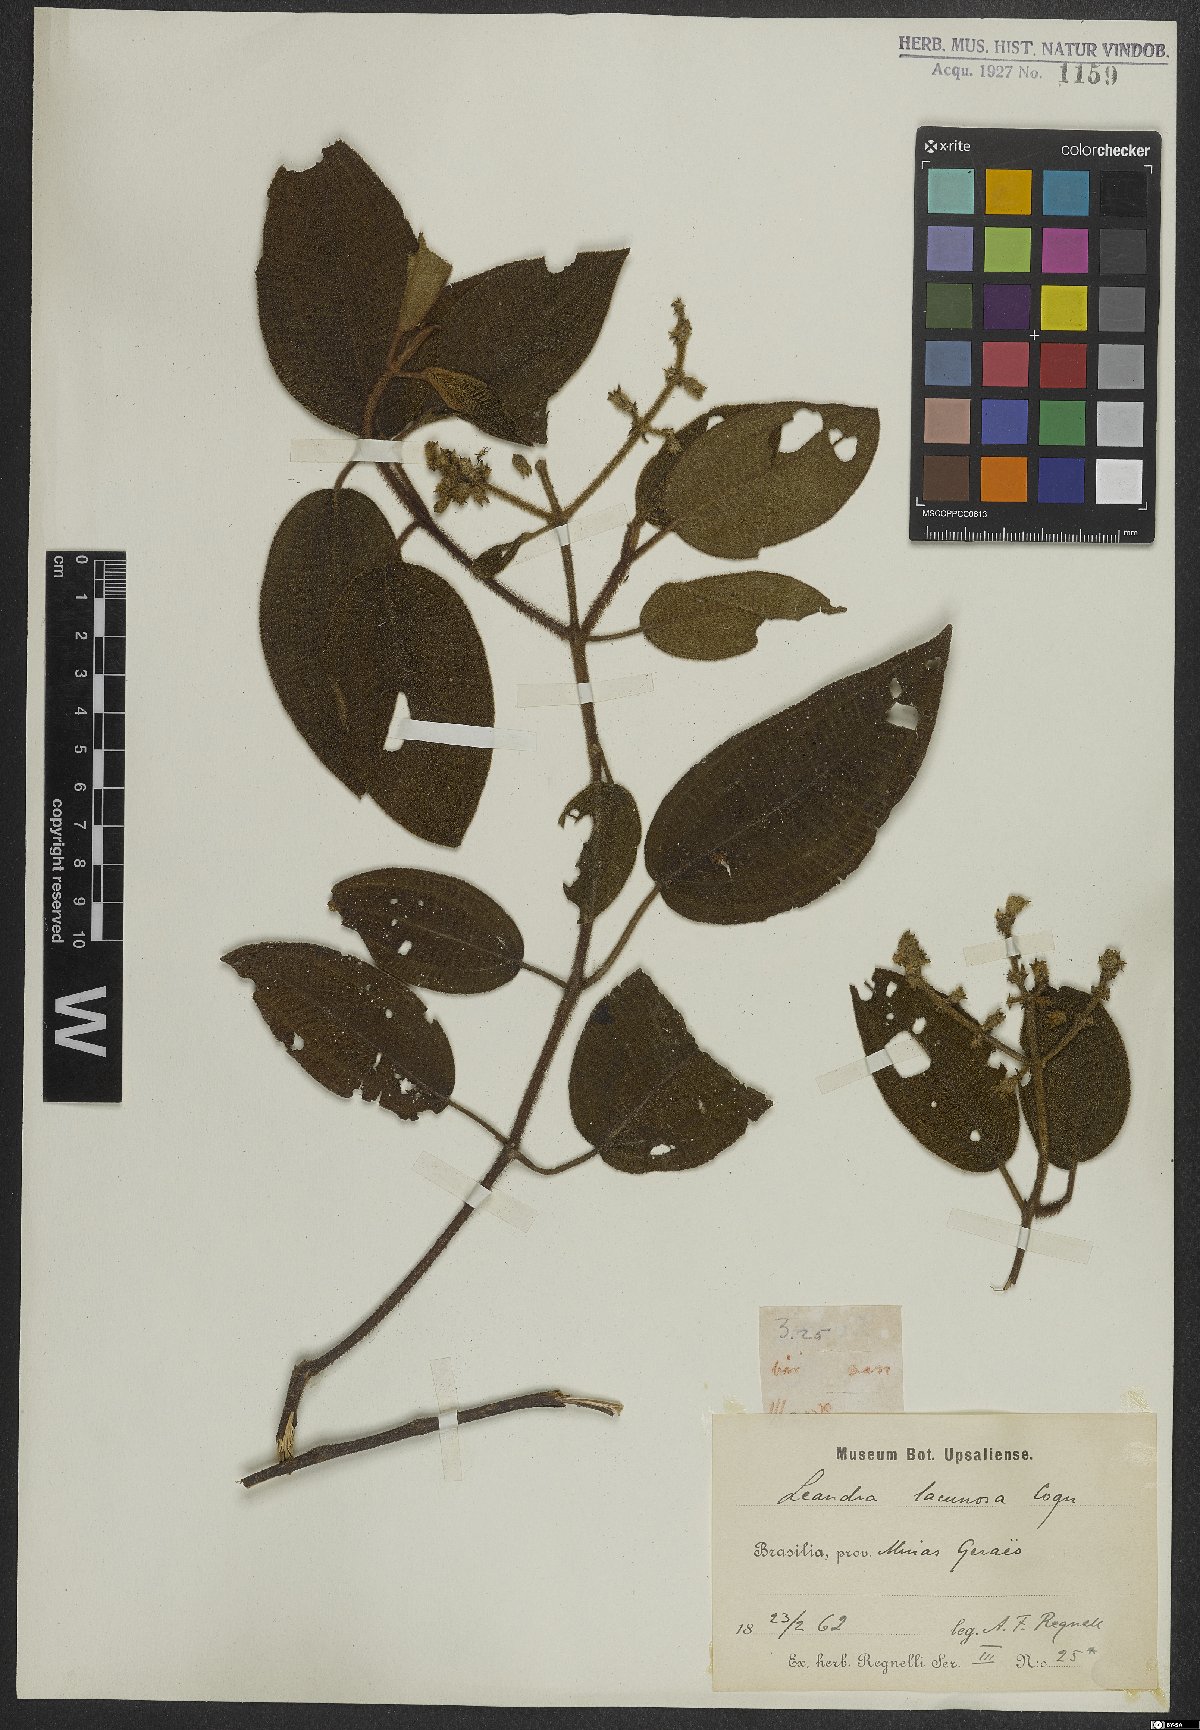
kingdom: Plantae
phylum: Tracheophyta
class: Magnoliopsida
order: Myrtales
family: Melastomataceae
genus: Miconia
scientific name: Miconia lacunosa
